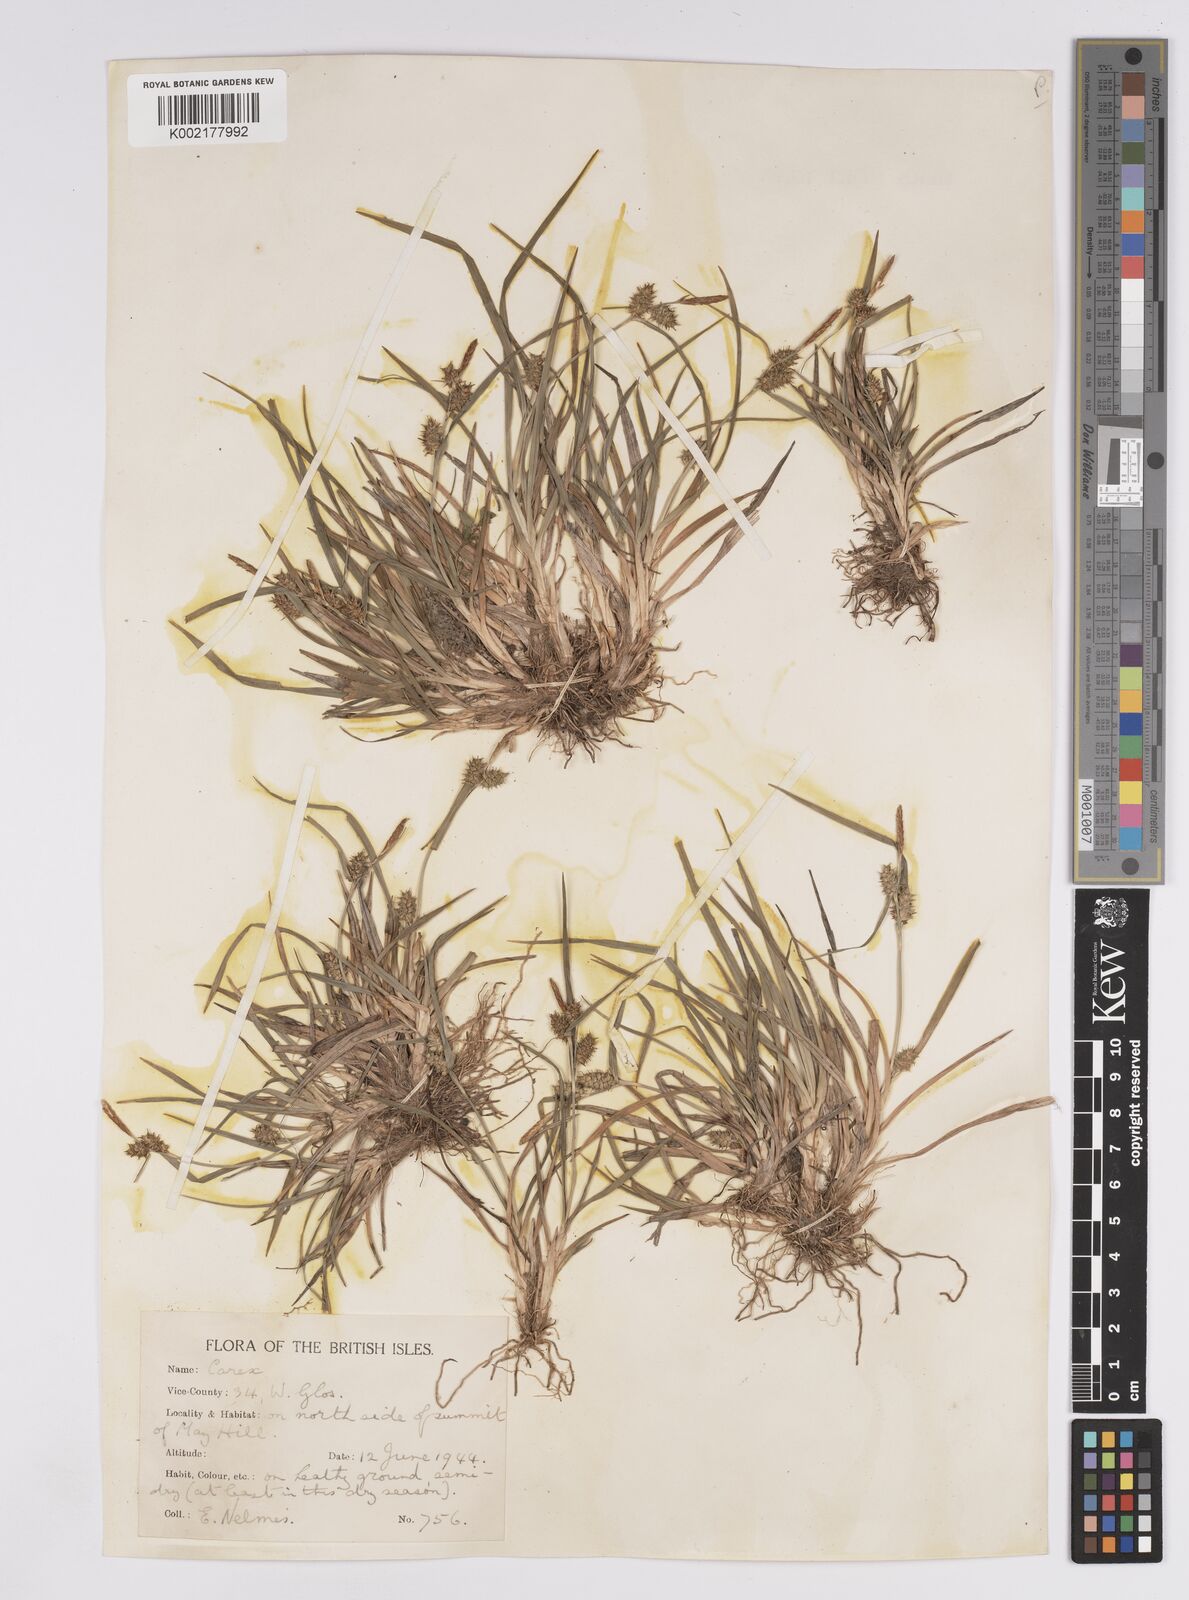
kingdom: Plantae
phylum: Tracheophyta
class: Liliopsida
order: Poales
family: Cyperaceae
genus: Carex
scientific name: Carex demissa
